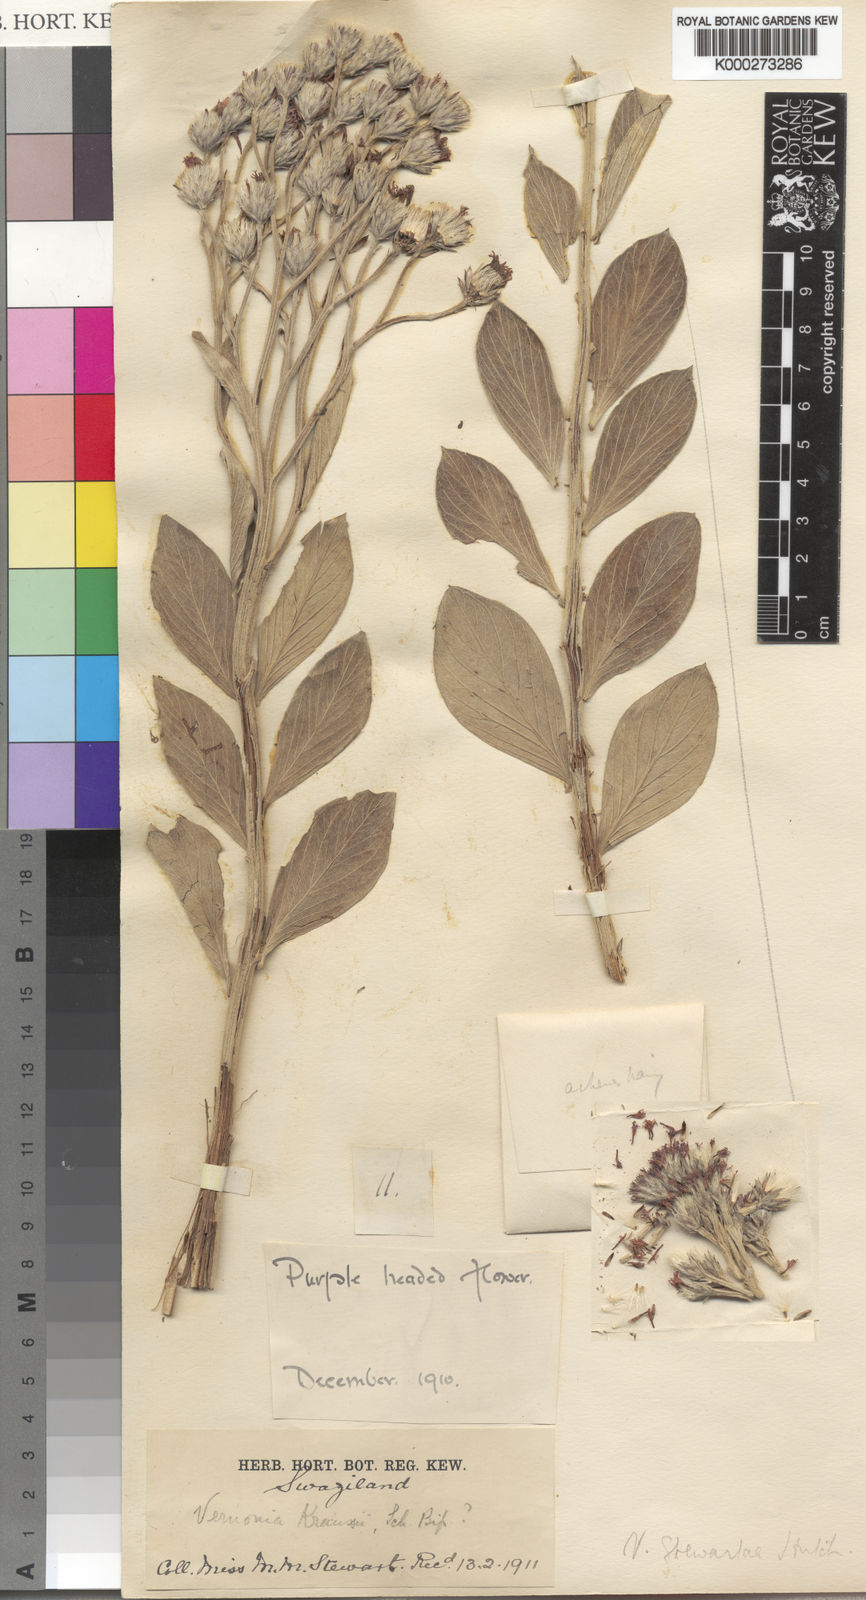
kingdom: Plantae
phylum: Tracheophyta
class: Magnoliopsida
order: Asterales
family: Asteraceae
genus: Vernonia
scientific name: Vernonia
